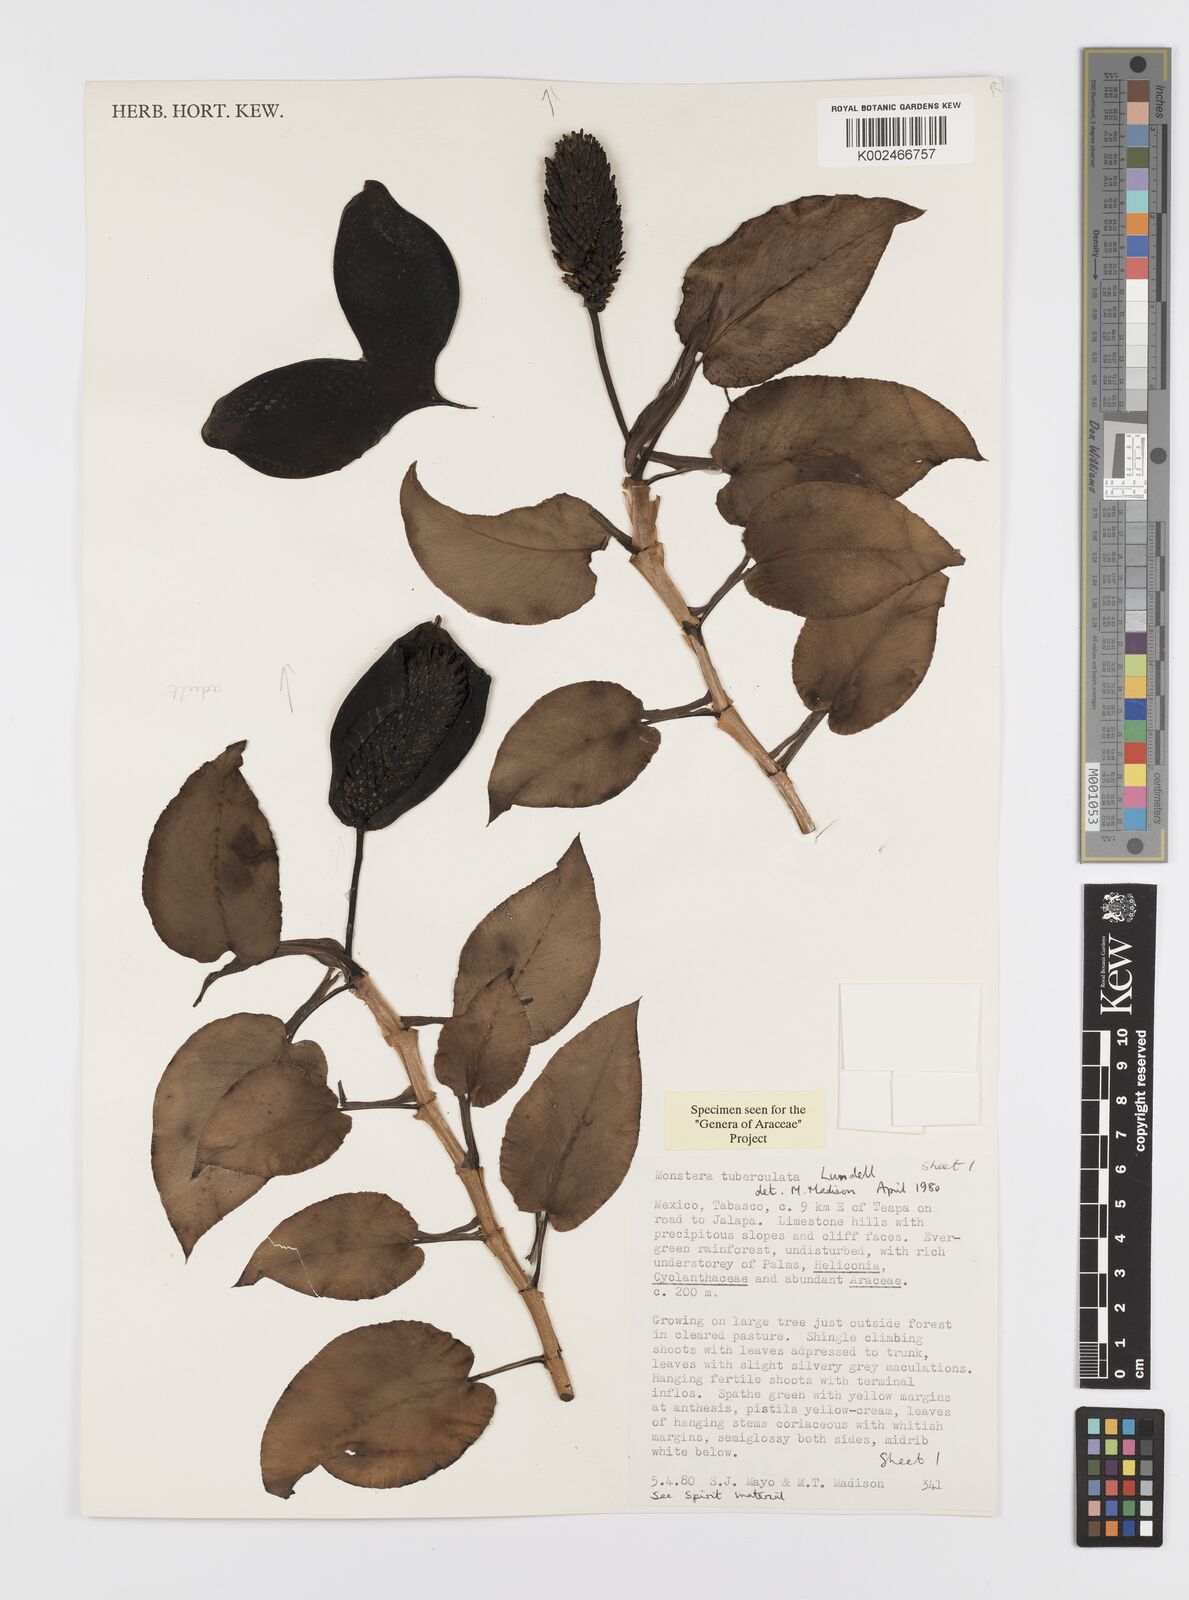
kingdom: Plantae
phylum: Tracheophyta
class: Liliopsida
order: Alismatales
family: Araceae
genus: Monstera
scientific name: Monstera tuberculata
